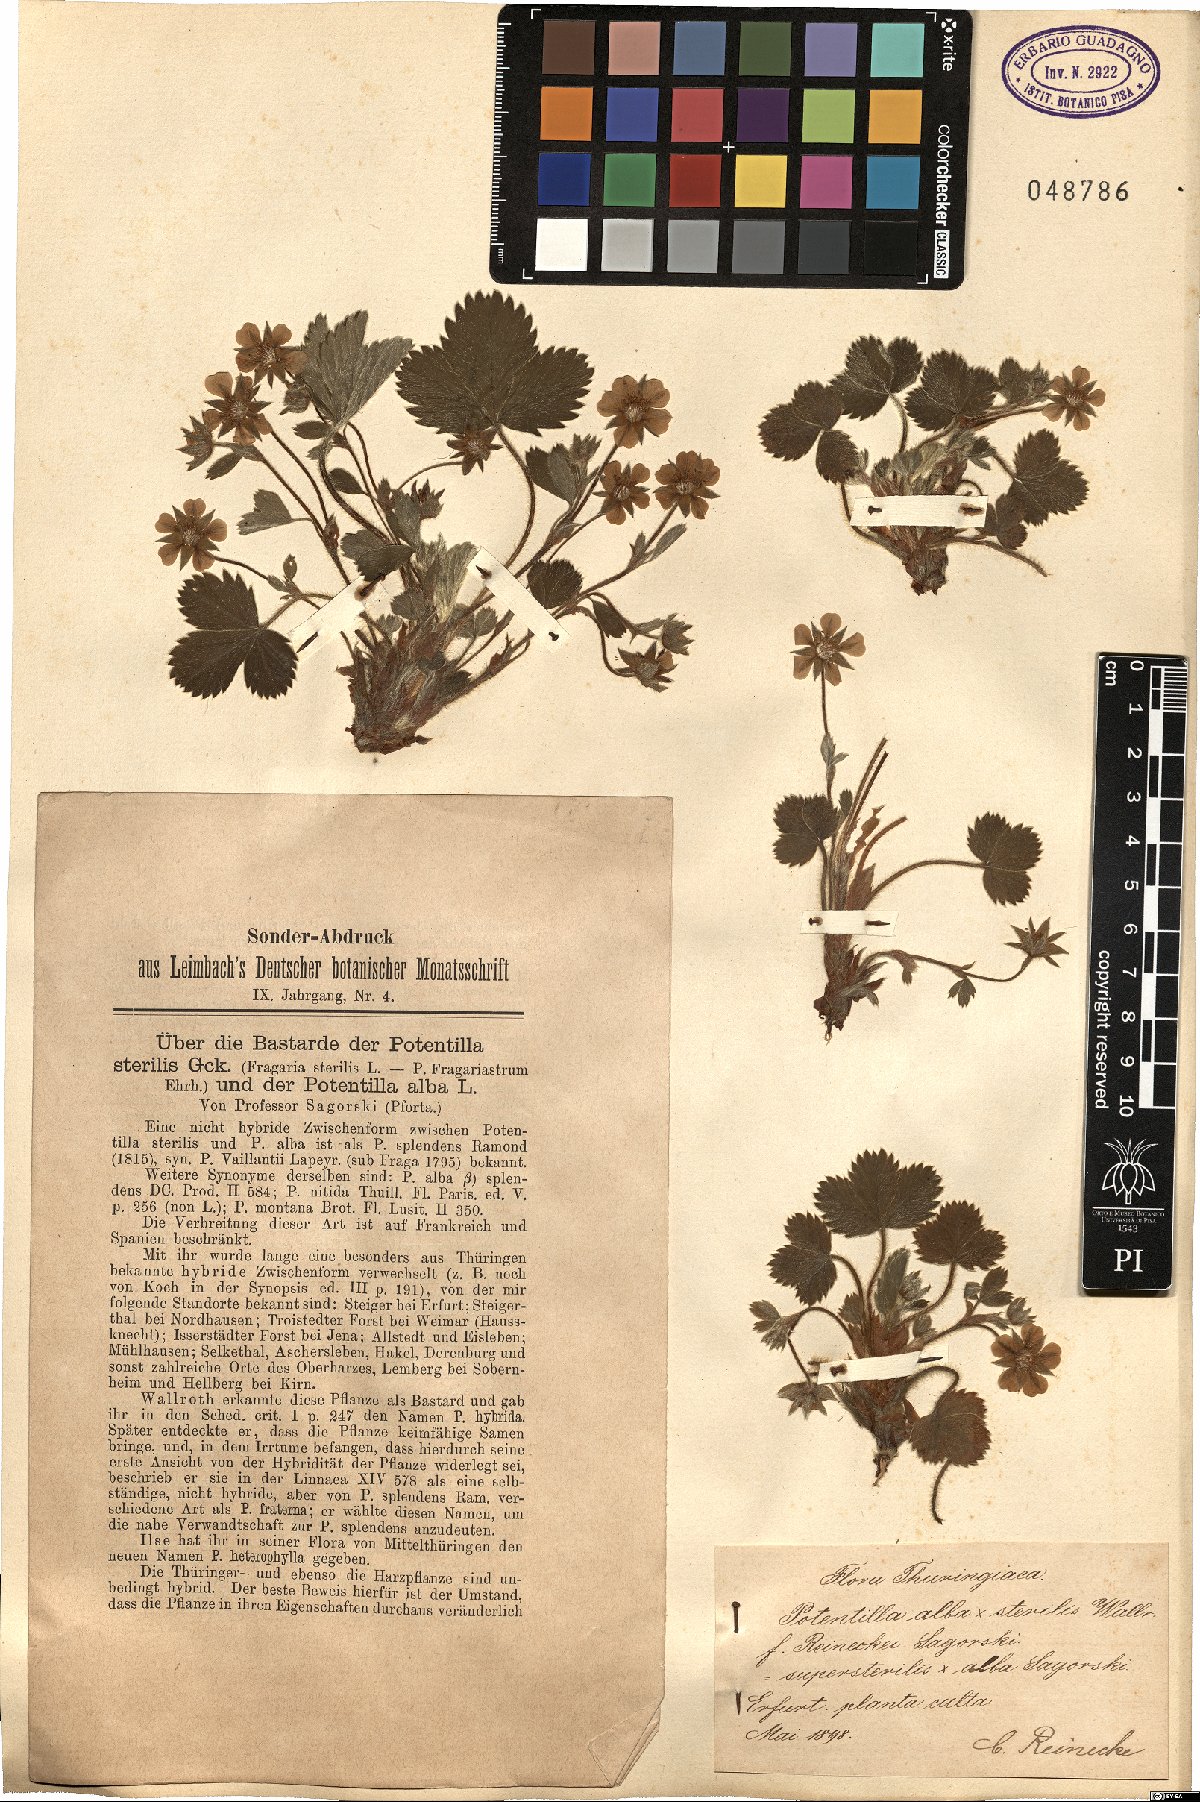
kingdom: Plantae
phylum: Tracheophyta
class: Magnoliopsida
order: Rosales
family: Rosaceae
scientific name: Rosaceae
